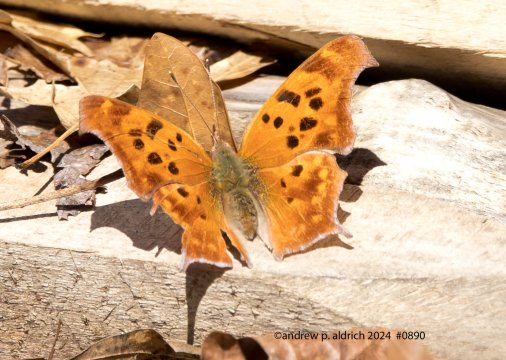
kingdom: Animalia
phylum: Arthropoda
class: Insecta
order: Lepidoptera
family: Nymphalidae
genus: Polygonia
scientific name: Polygonia interrogationis
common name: Question Mark
